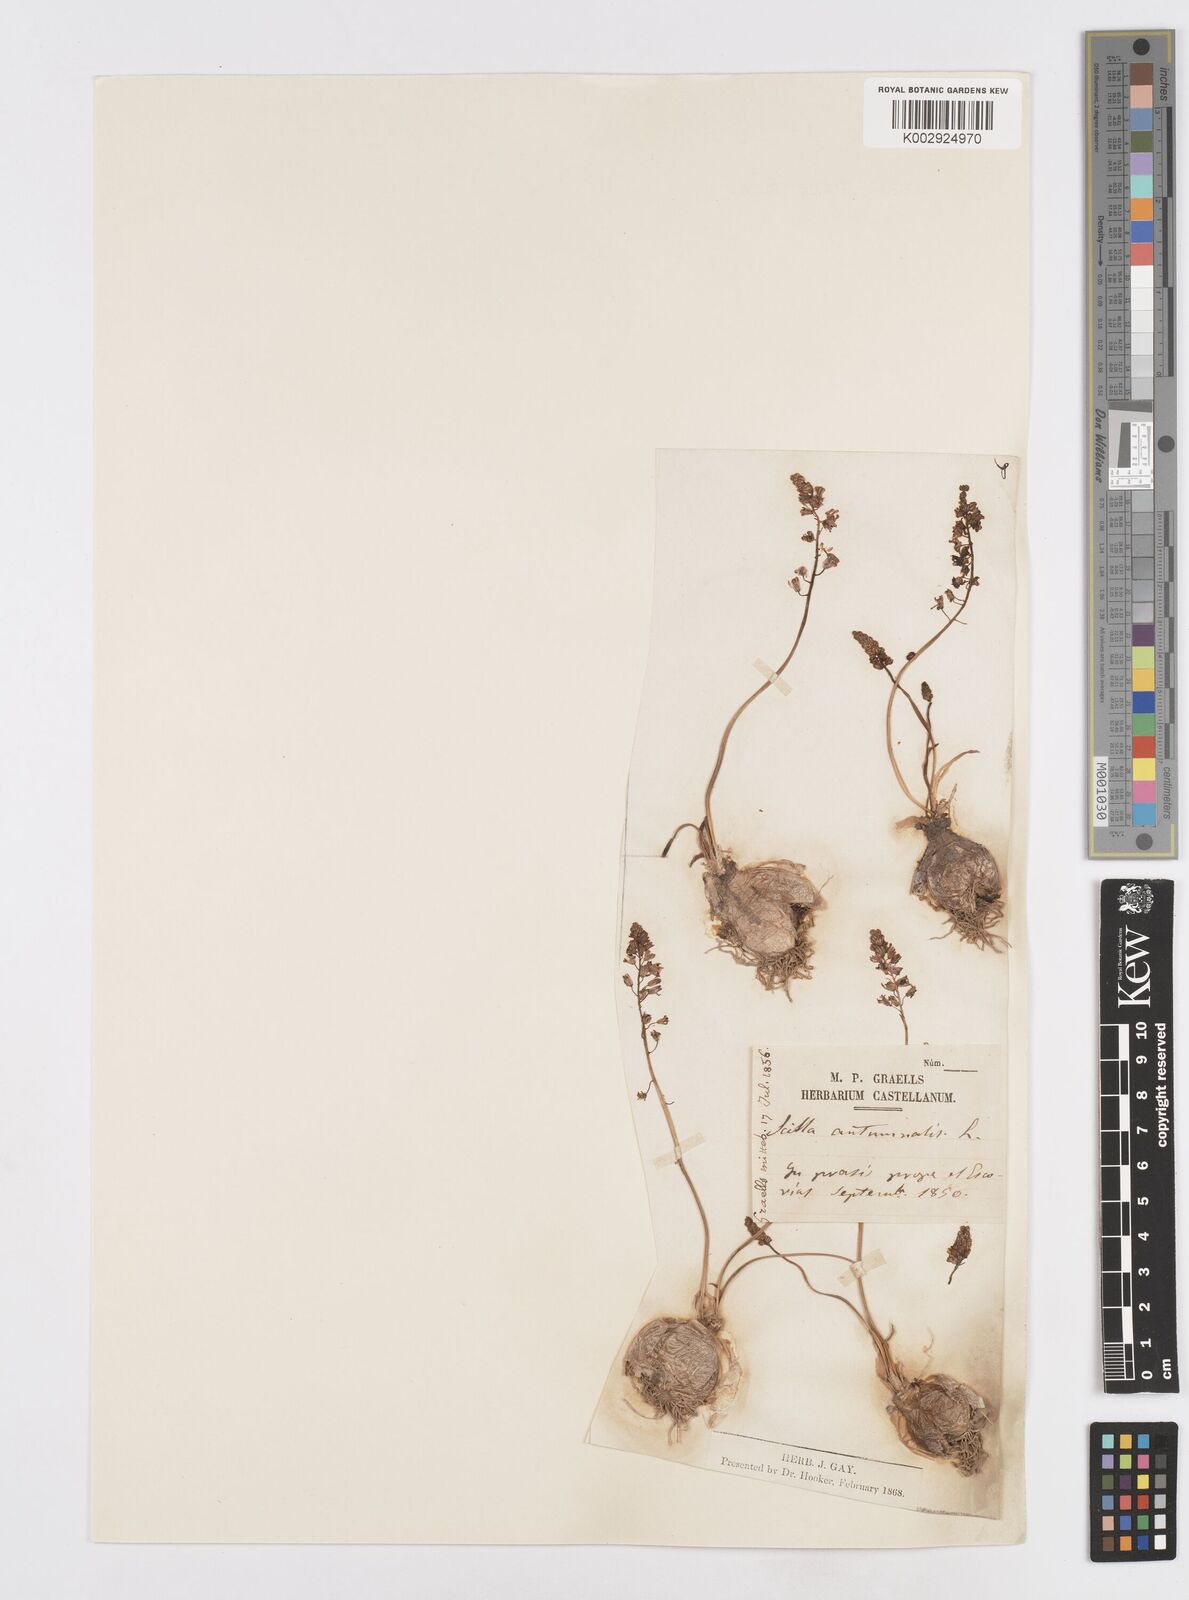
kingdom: Plantae
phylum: Tracheophyta
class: Liliopsida
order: Asparagales
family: Asparagaceae
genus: Prospero
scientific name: Prospero autumnale
